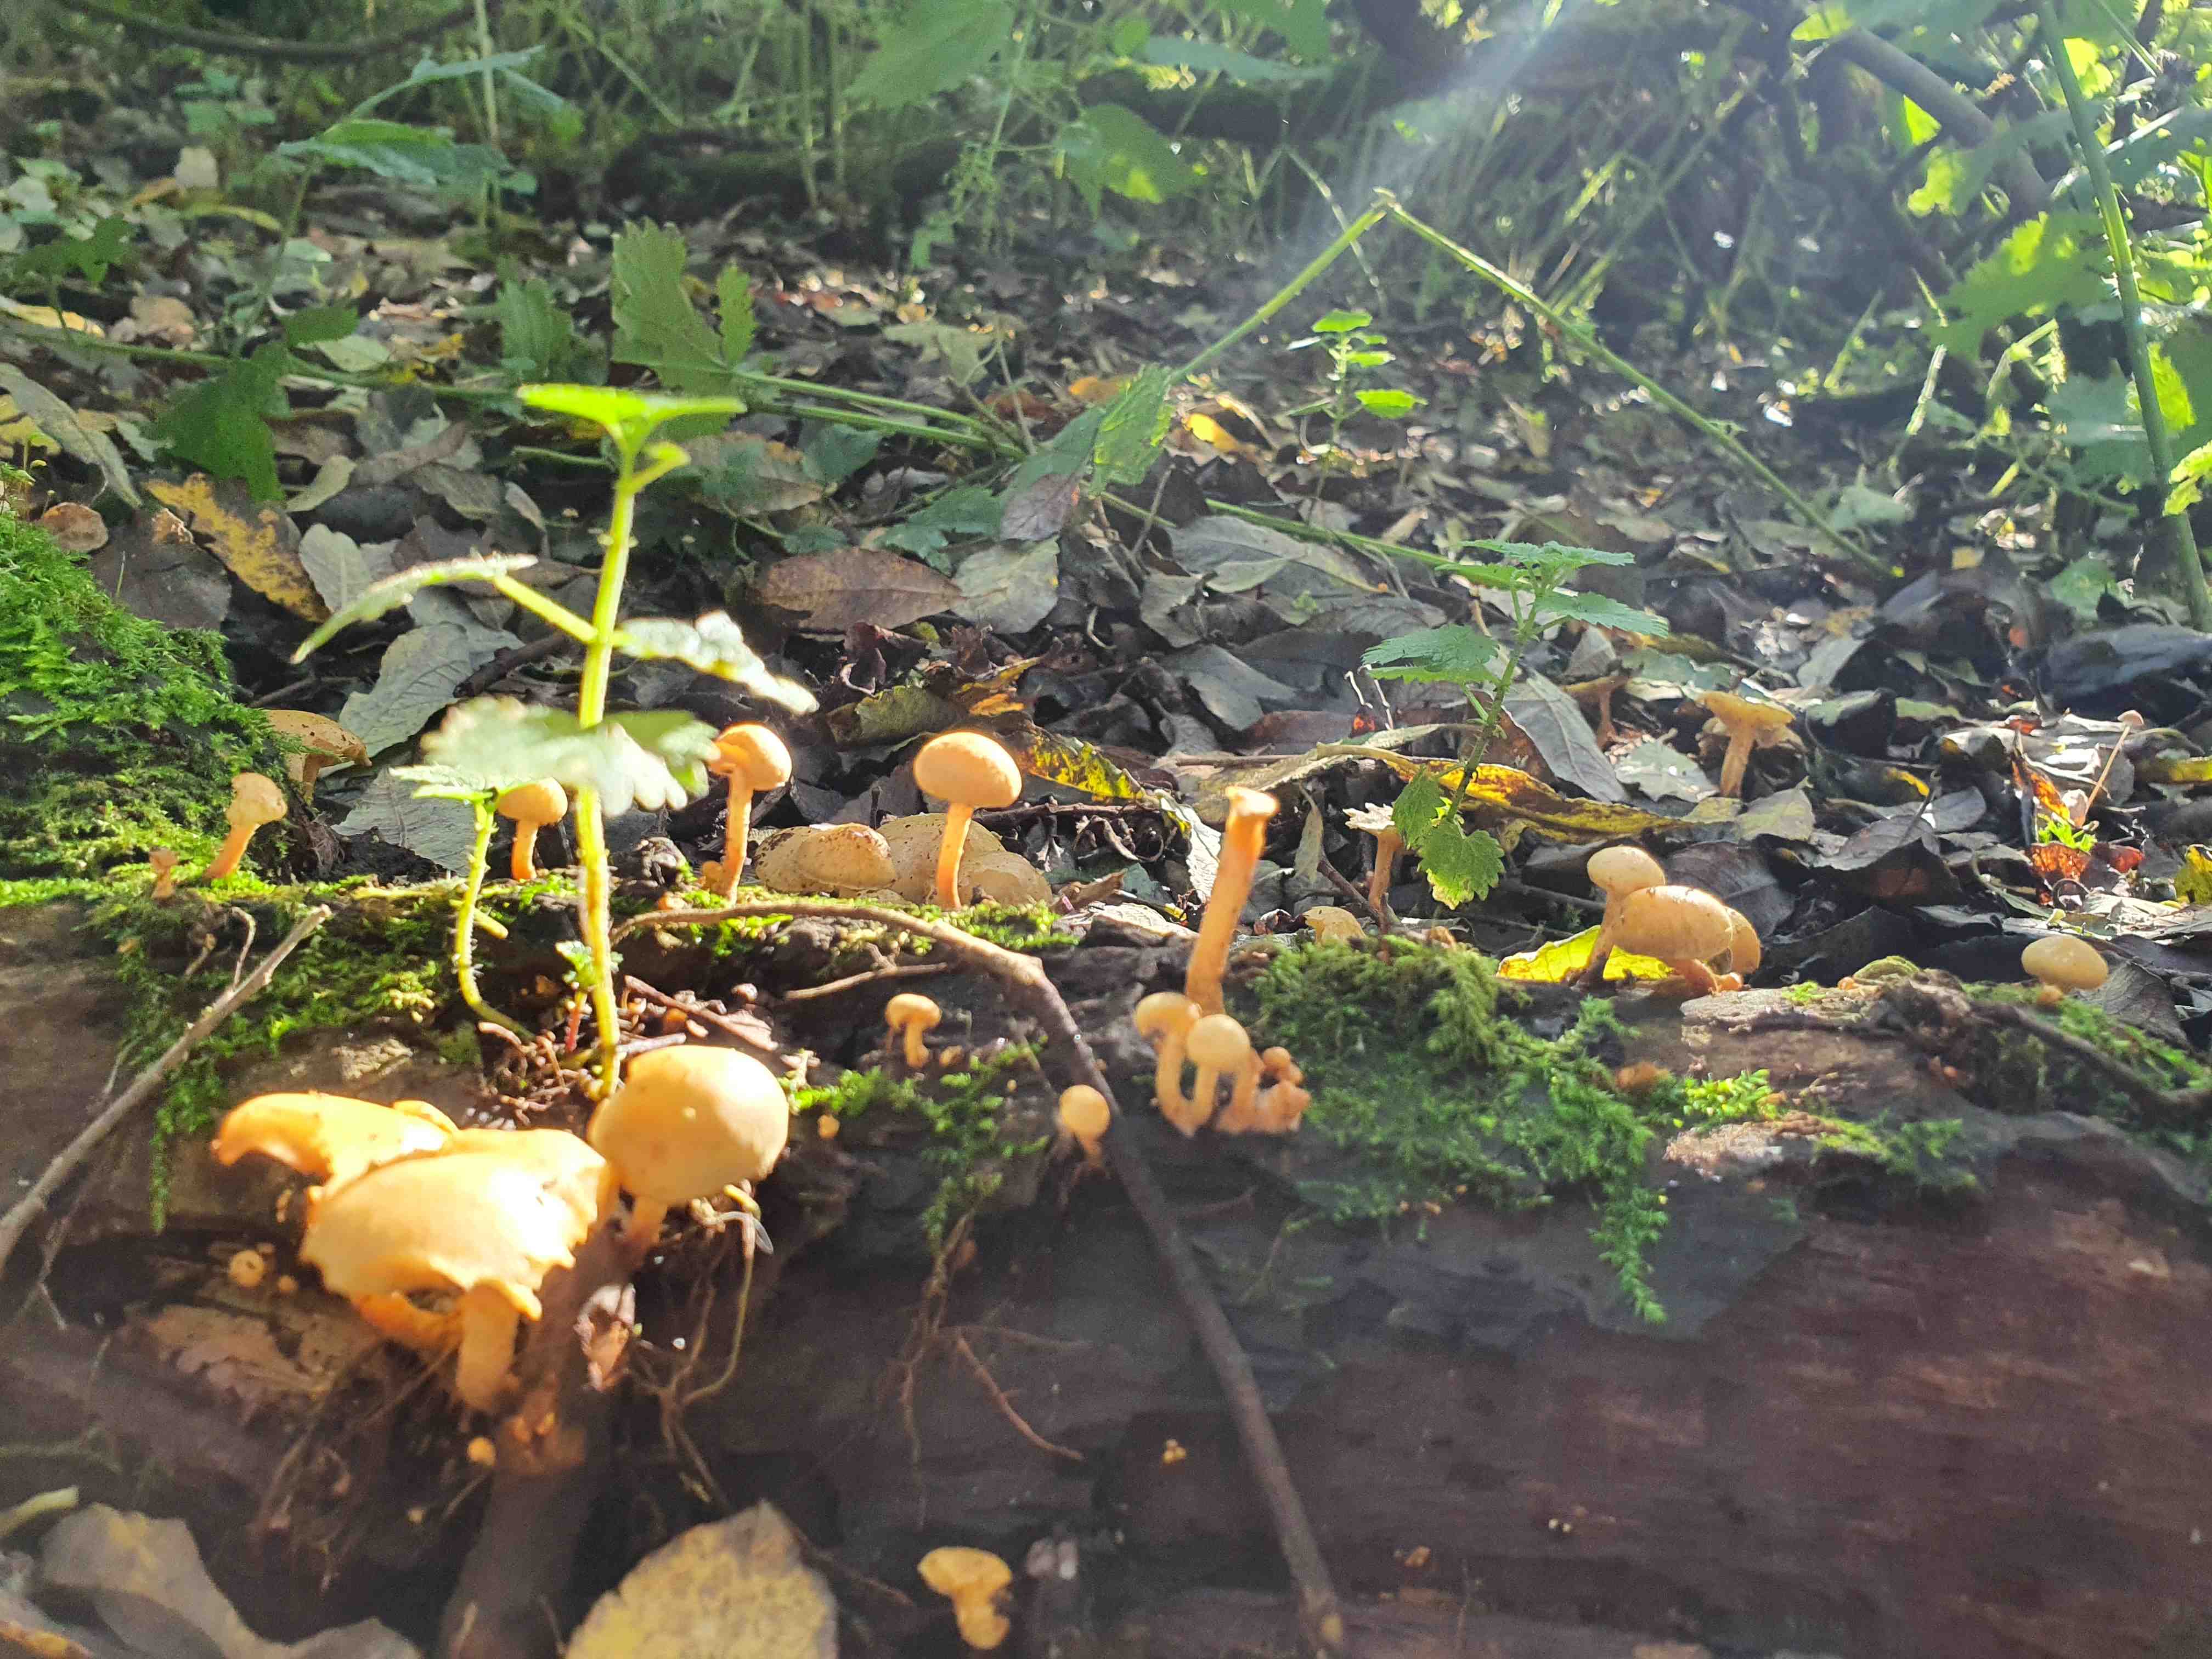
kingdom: Fungi
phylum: Basidiomycota
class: Agaricomycetes
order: Agaricales
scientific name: Agaricales
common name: champignonordenen
